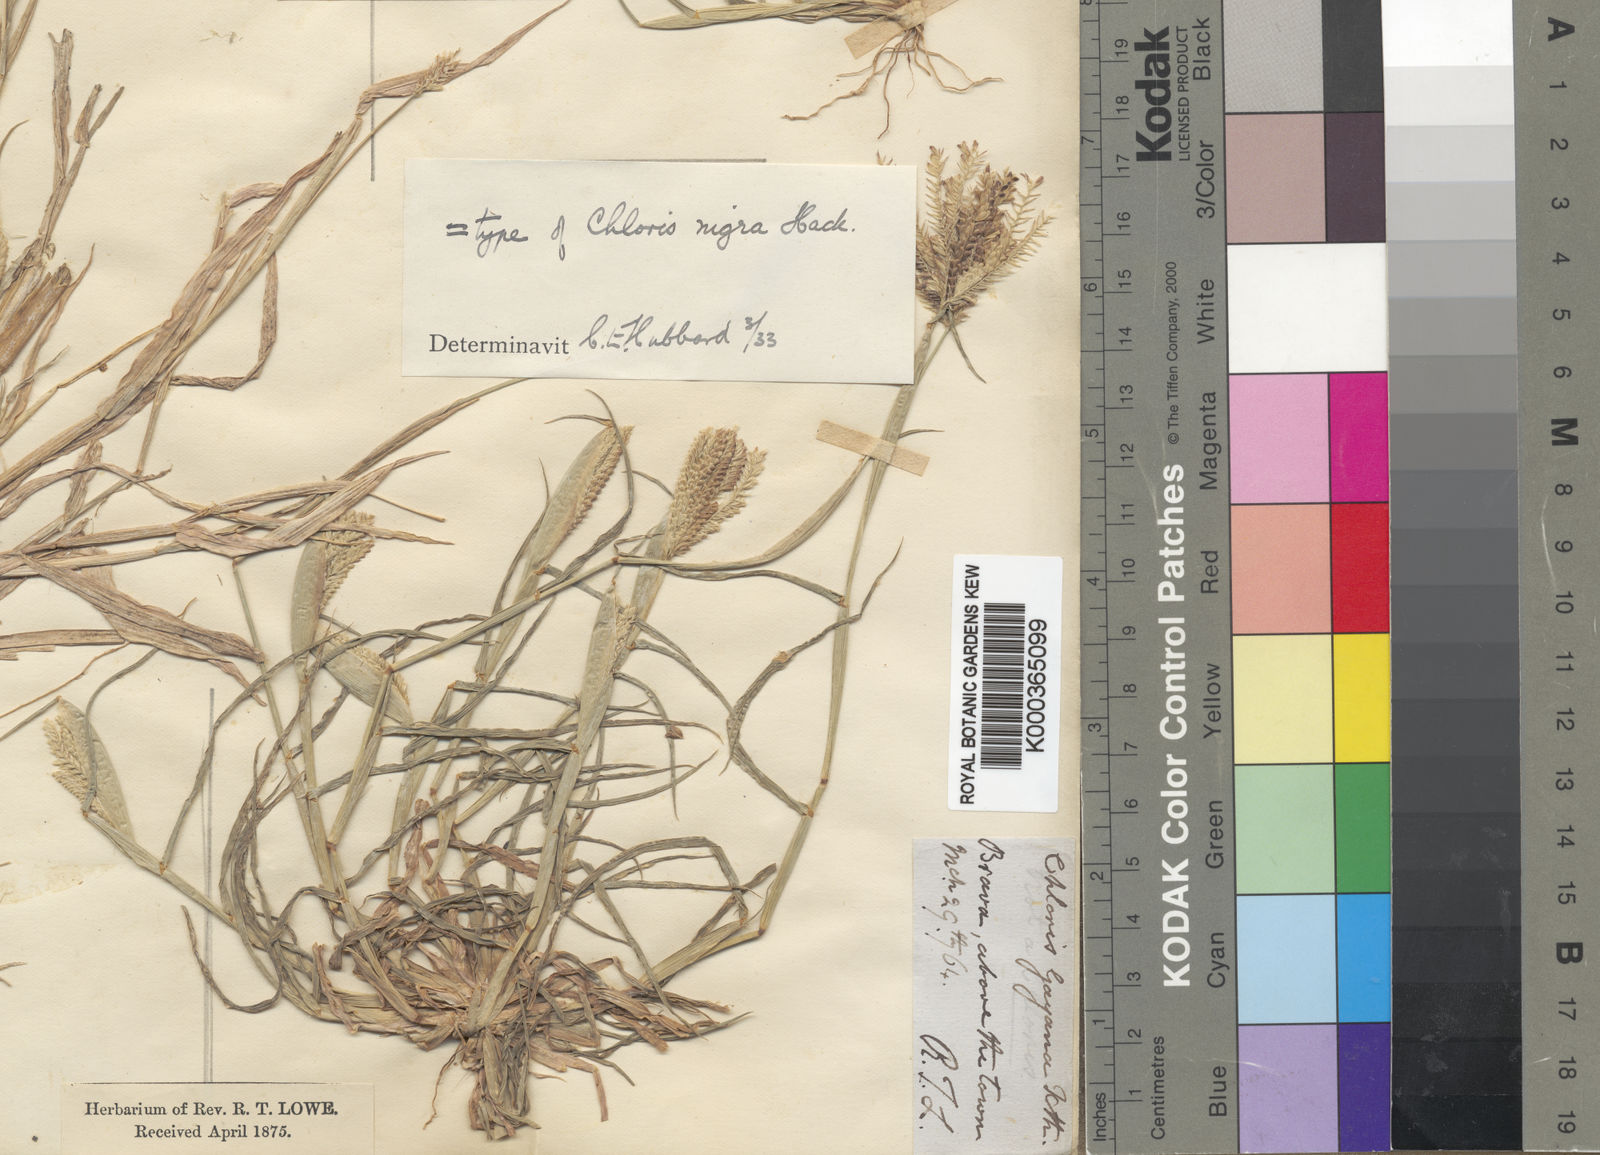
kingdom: Plantae
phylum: Tracheophyta
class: Liliopsida
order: Poales
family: Poaceae
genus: Chloris
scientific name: Chloris pilosa
